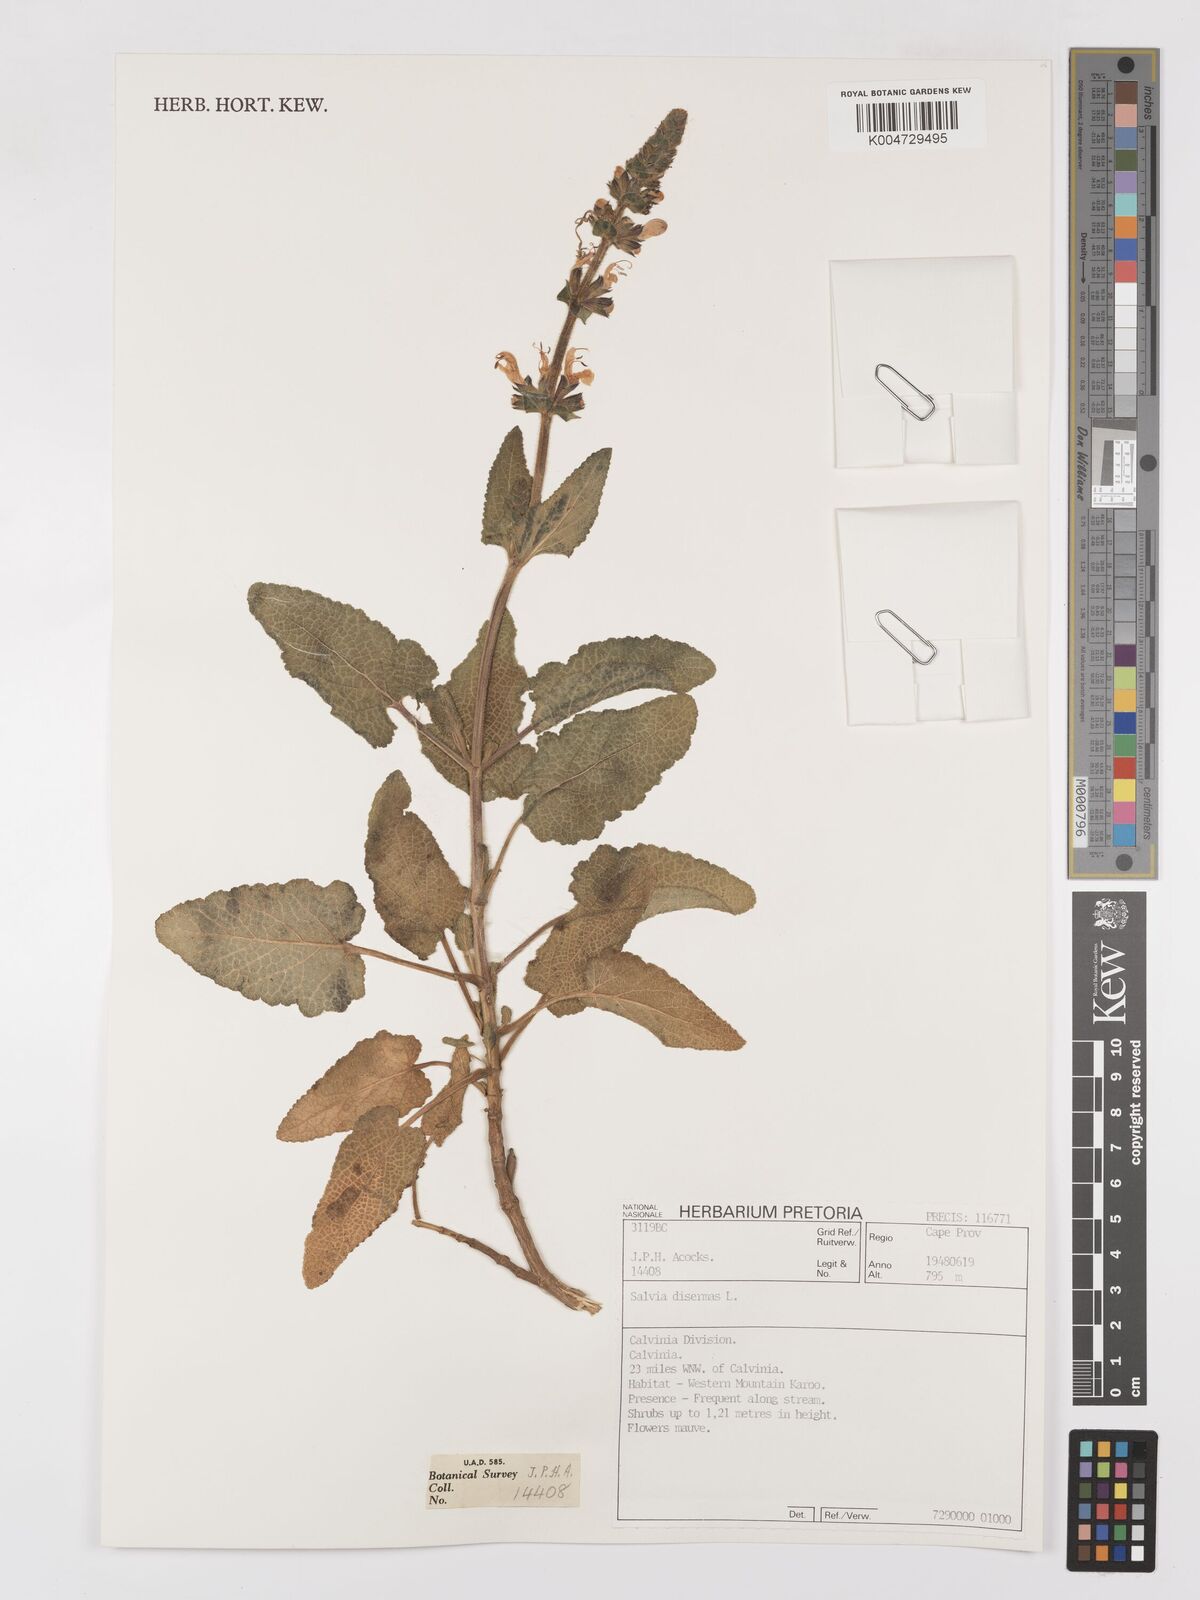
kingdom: Plantae
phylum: Tracheophyta
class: Magnoliopsida
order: Lamiales
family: Lamiaceae
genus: Salvia
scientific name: Salvia
